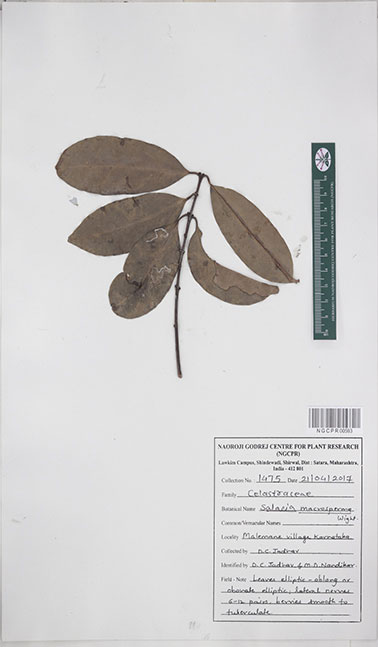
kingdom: Plantae
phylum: Tracheophyta
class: Magnoliopsida
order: Celastrales
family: Celastraceae
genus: Salacia
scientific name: Salacia macrosperma
